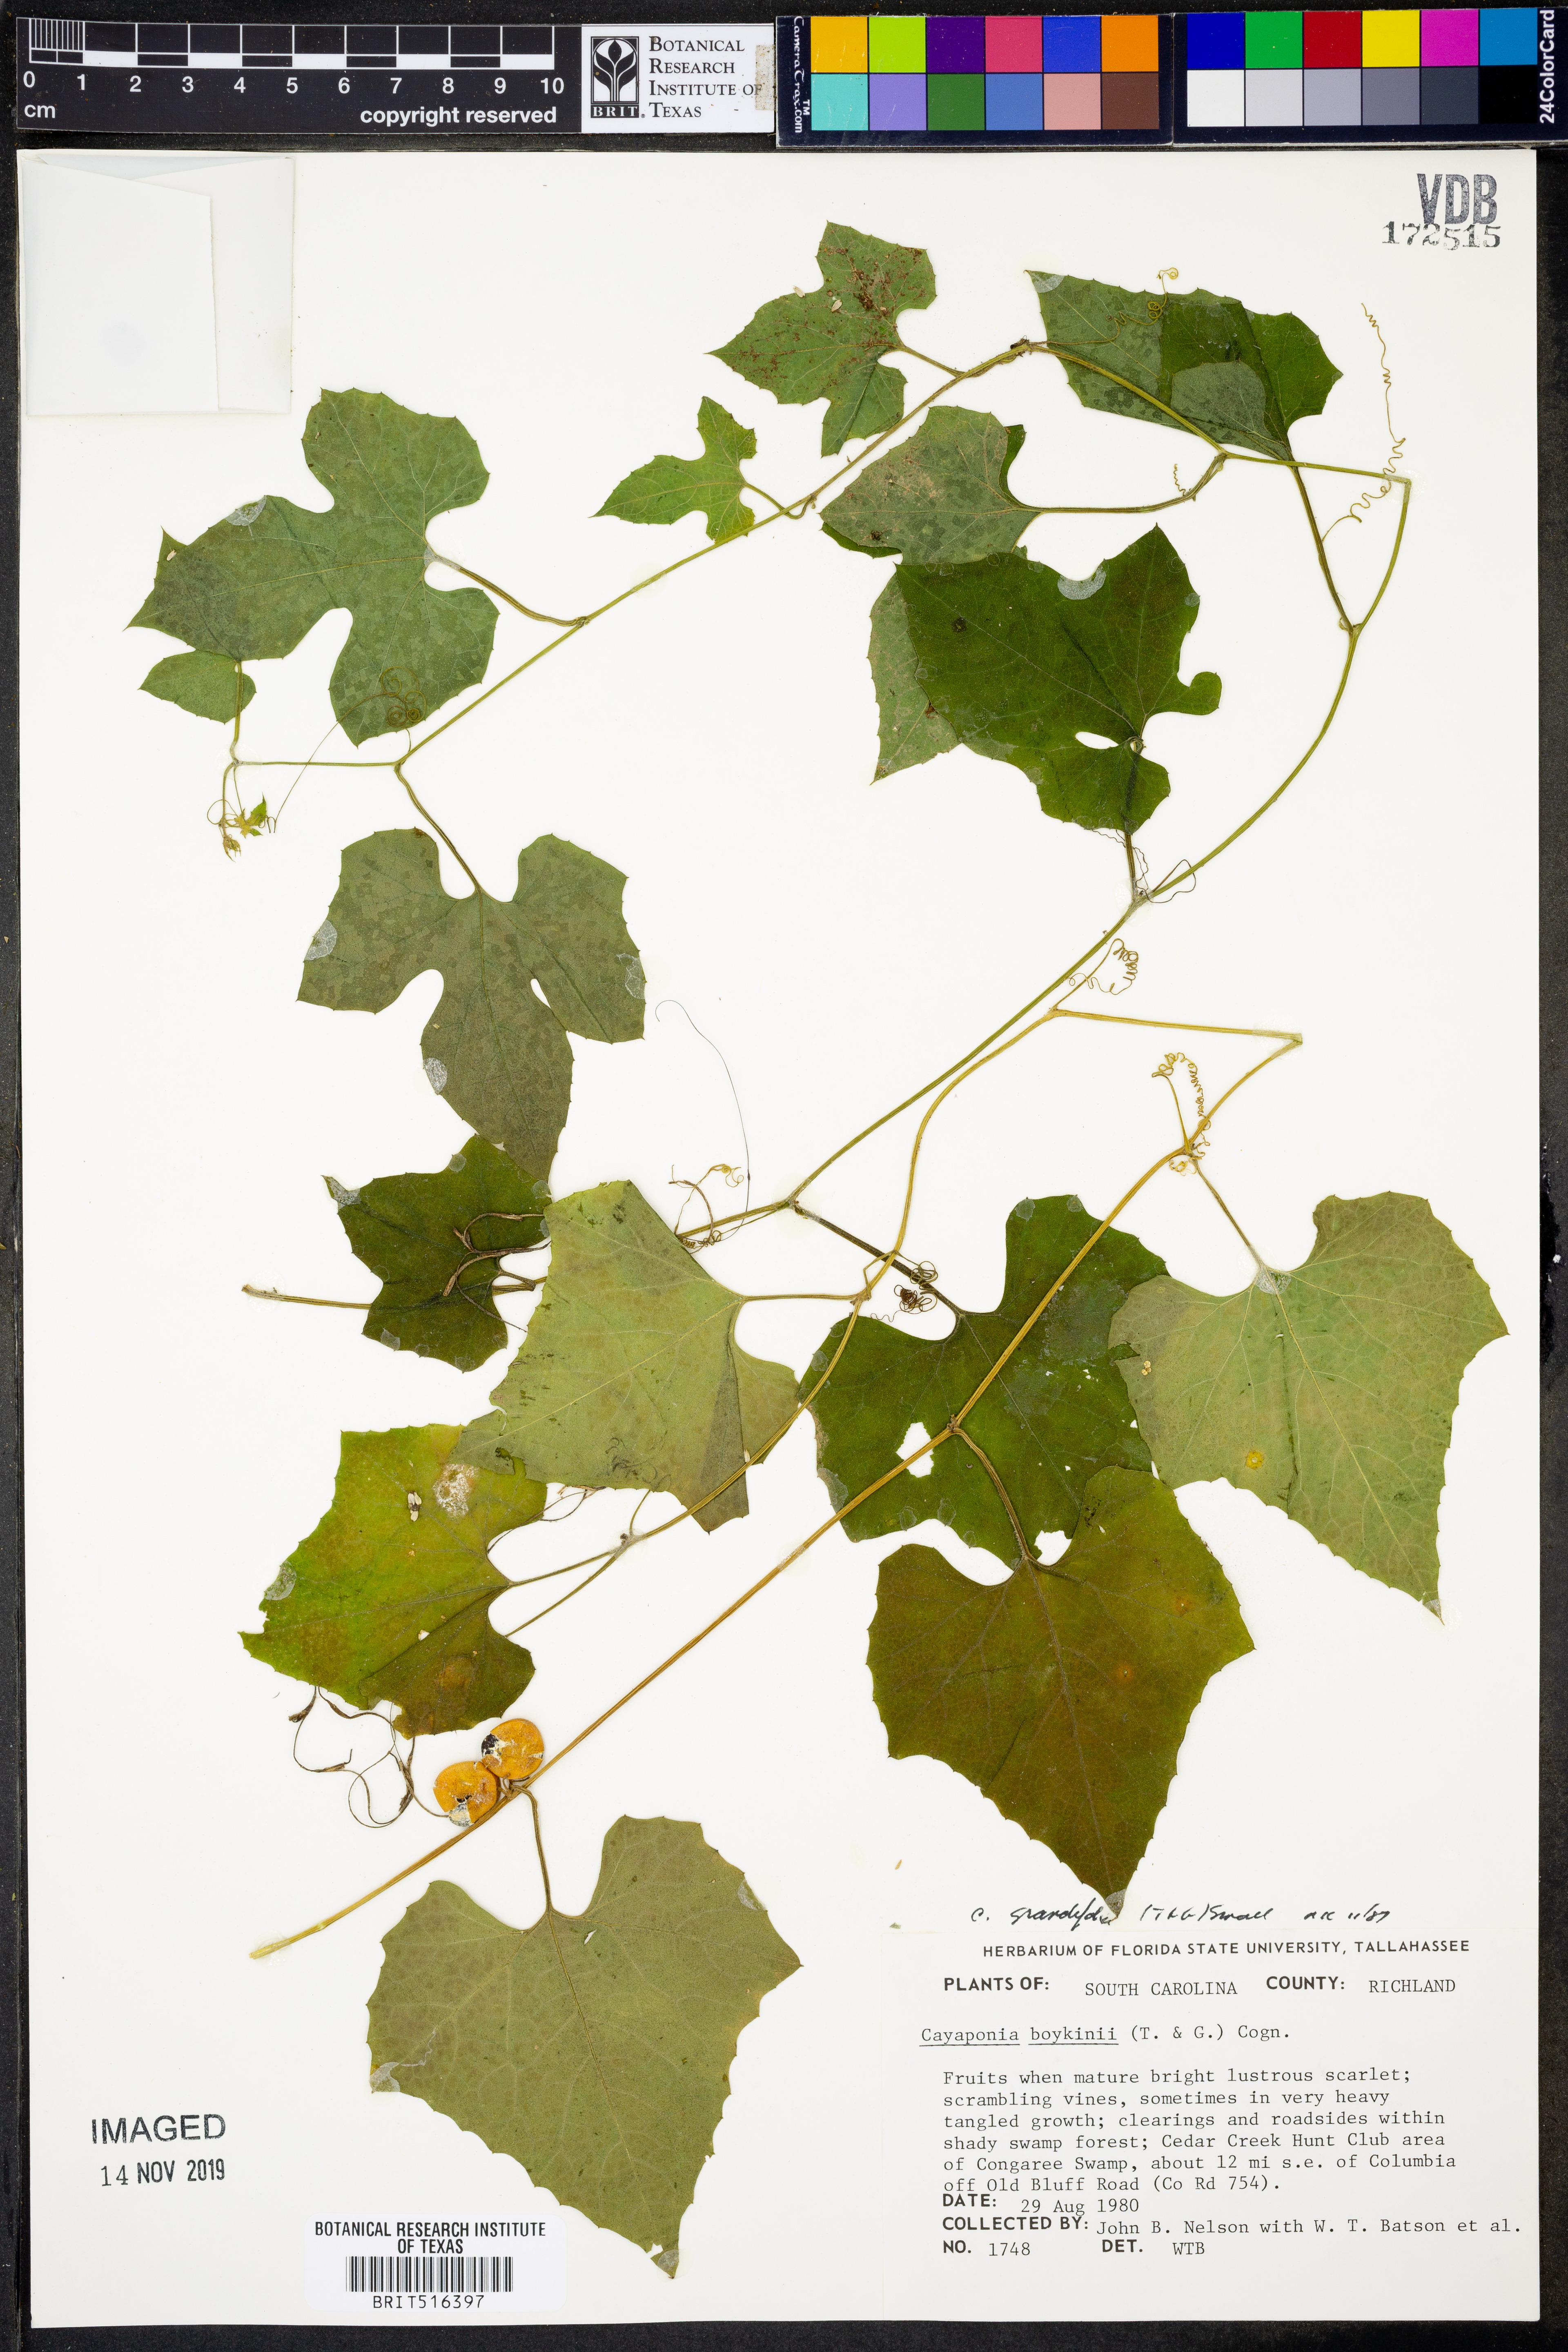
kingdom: Plantae
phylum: Tracheophyta
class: Magnoliopsida
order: Cucurbitales
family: Cucurbitaceae
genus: Cayaponia
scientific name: Cayaponia quinqueloba
